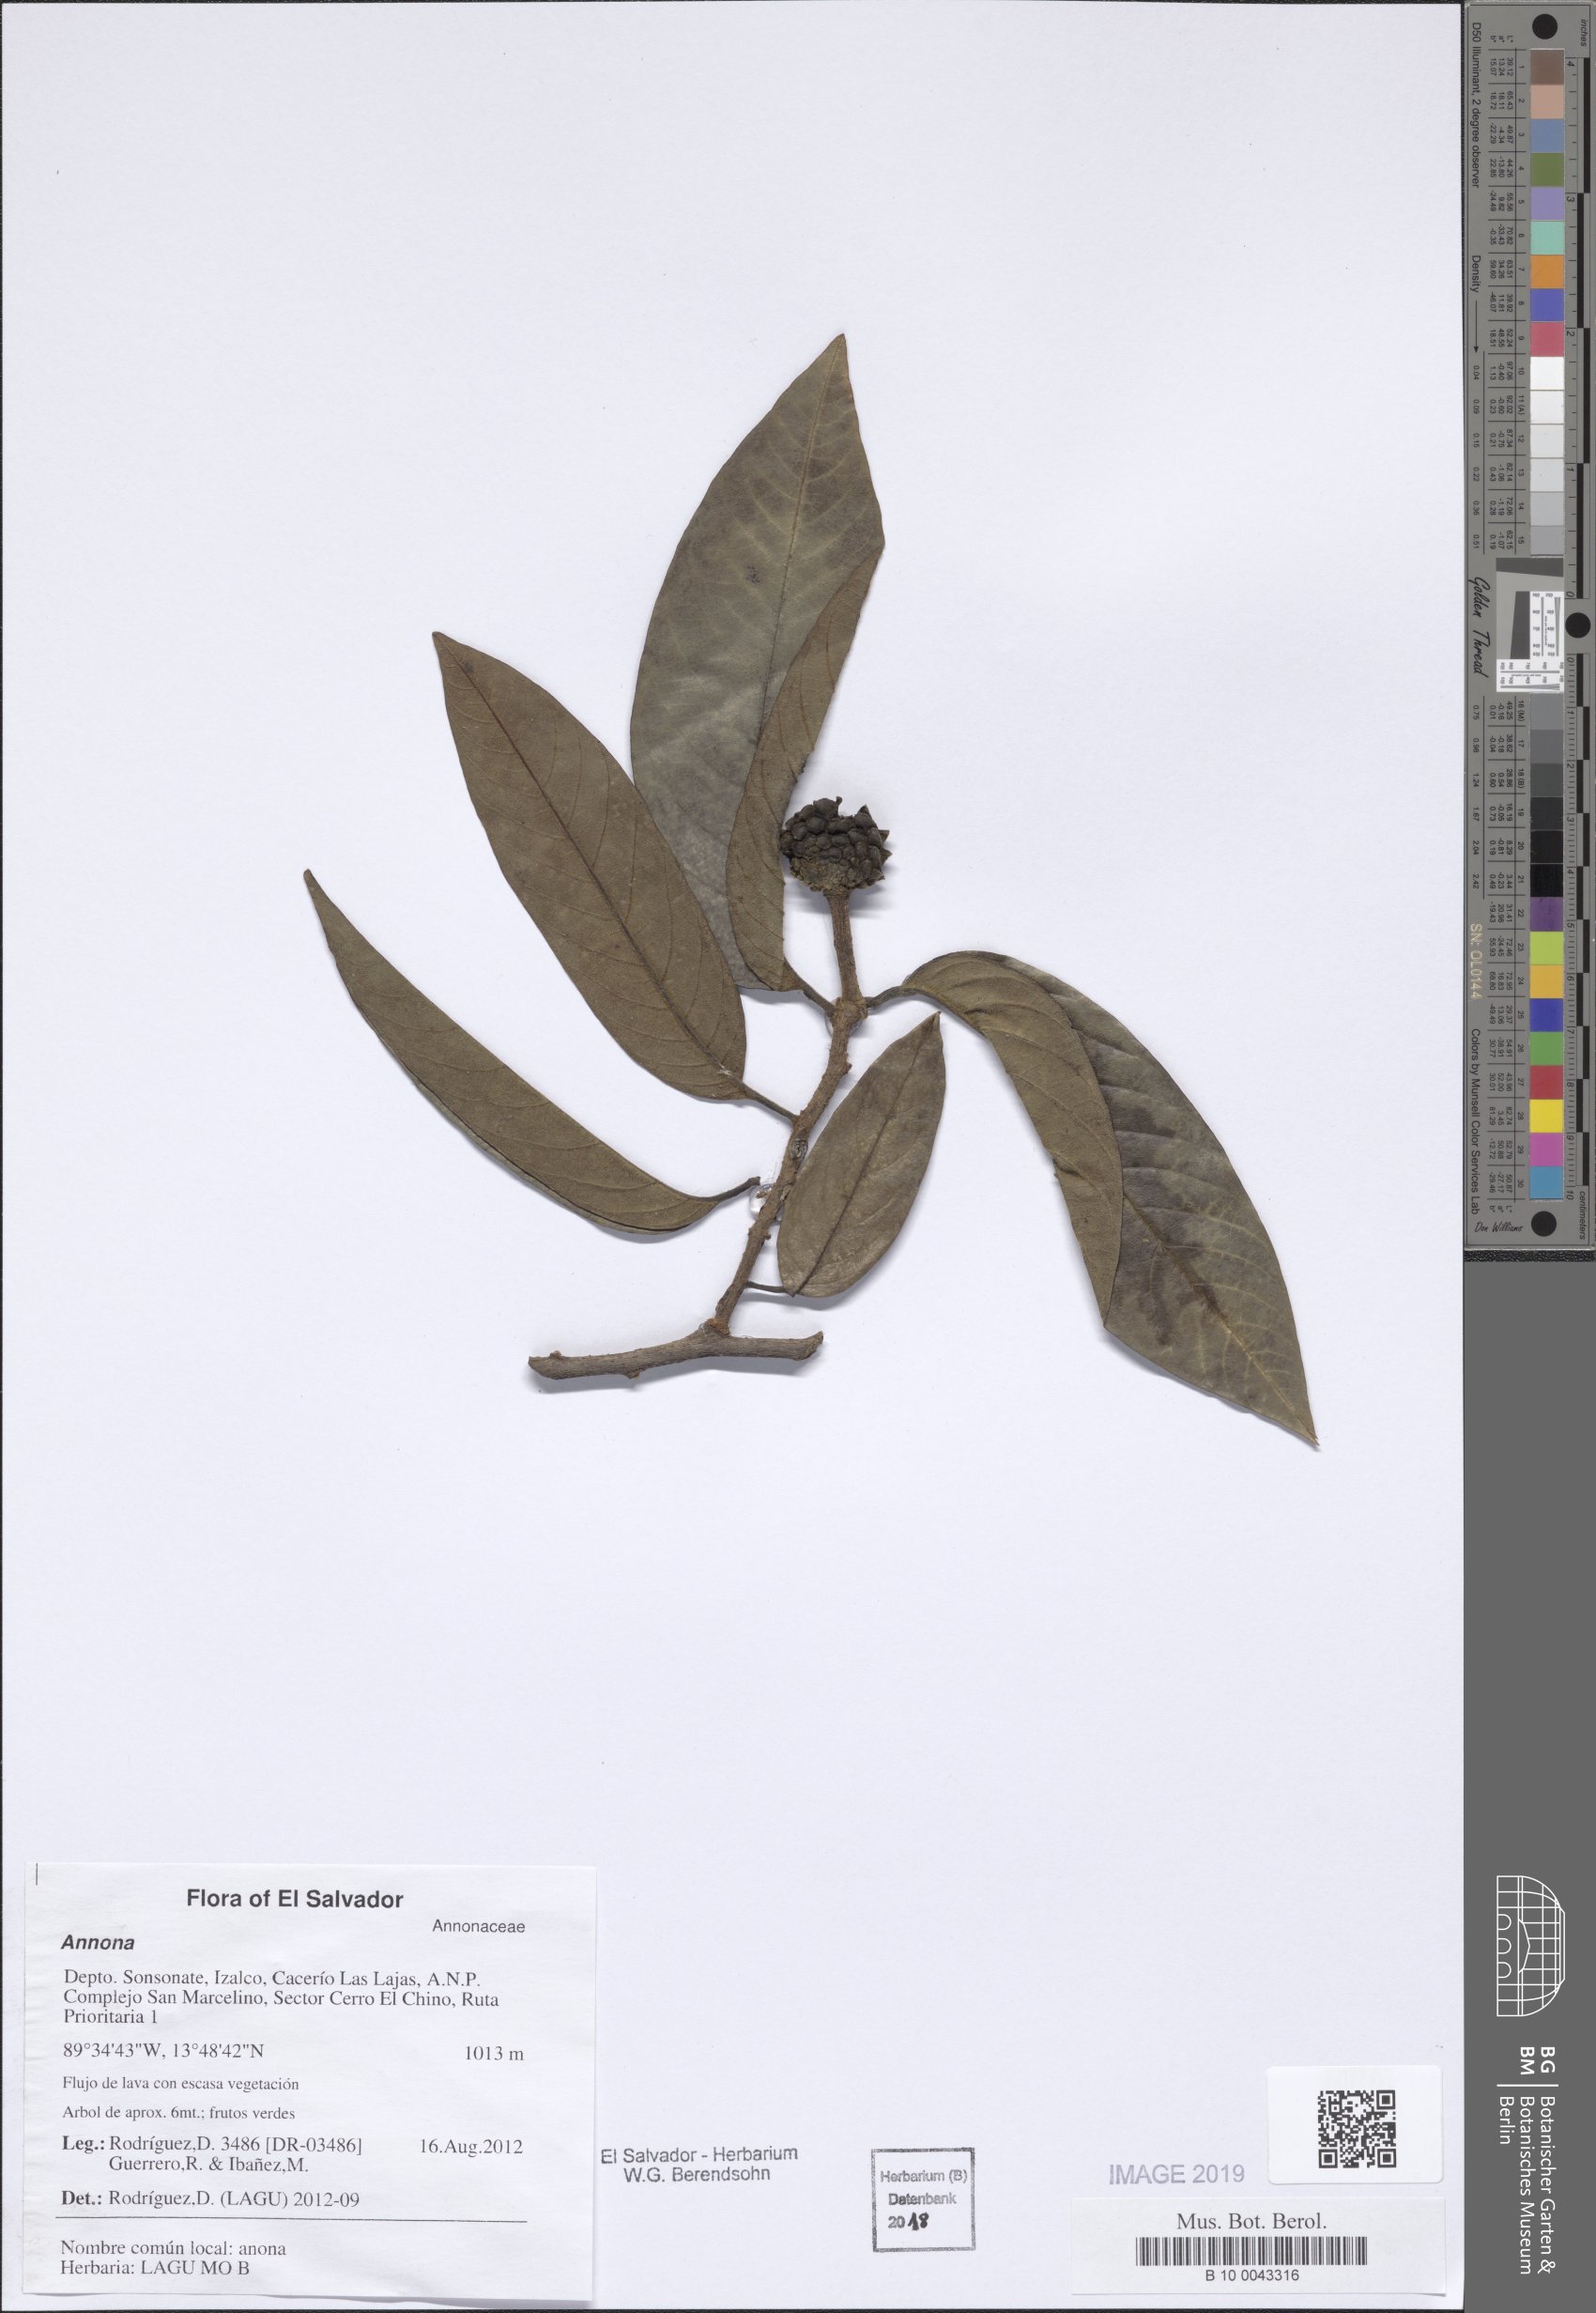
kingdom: Plantae
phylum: Tracheophyta
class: Magnoliopsida
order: Magnoliales
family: Annonaceae
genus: Annona
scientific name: Annona
